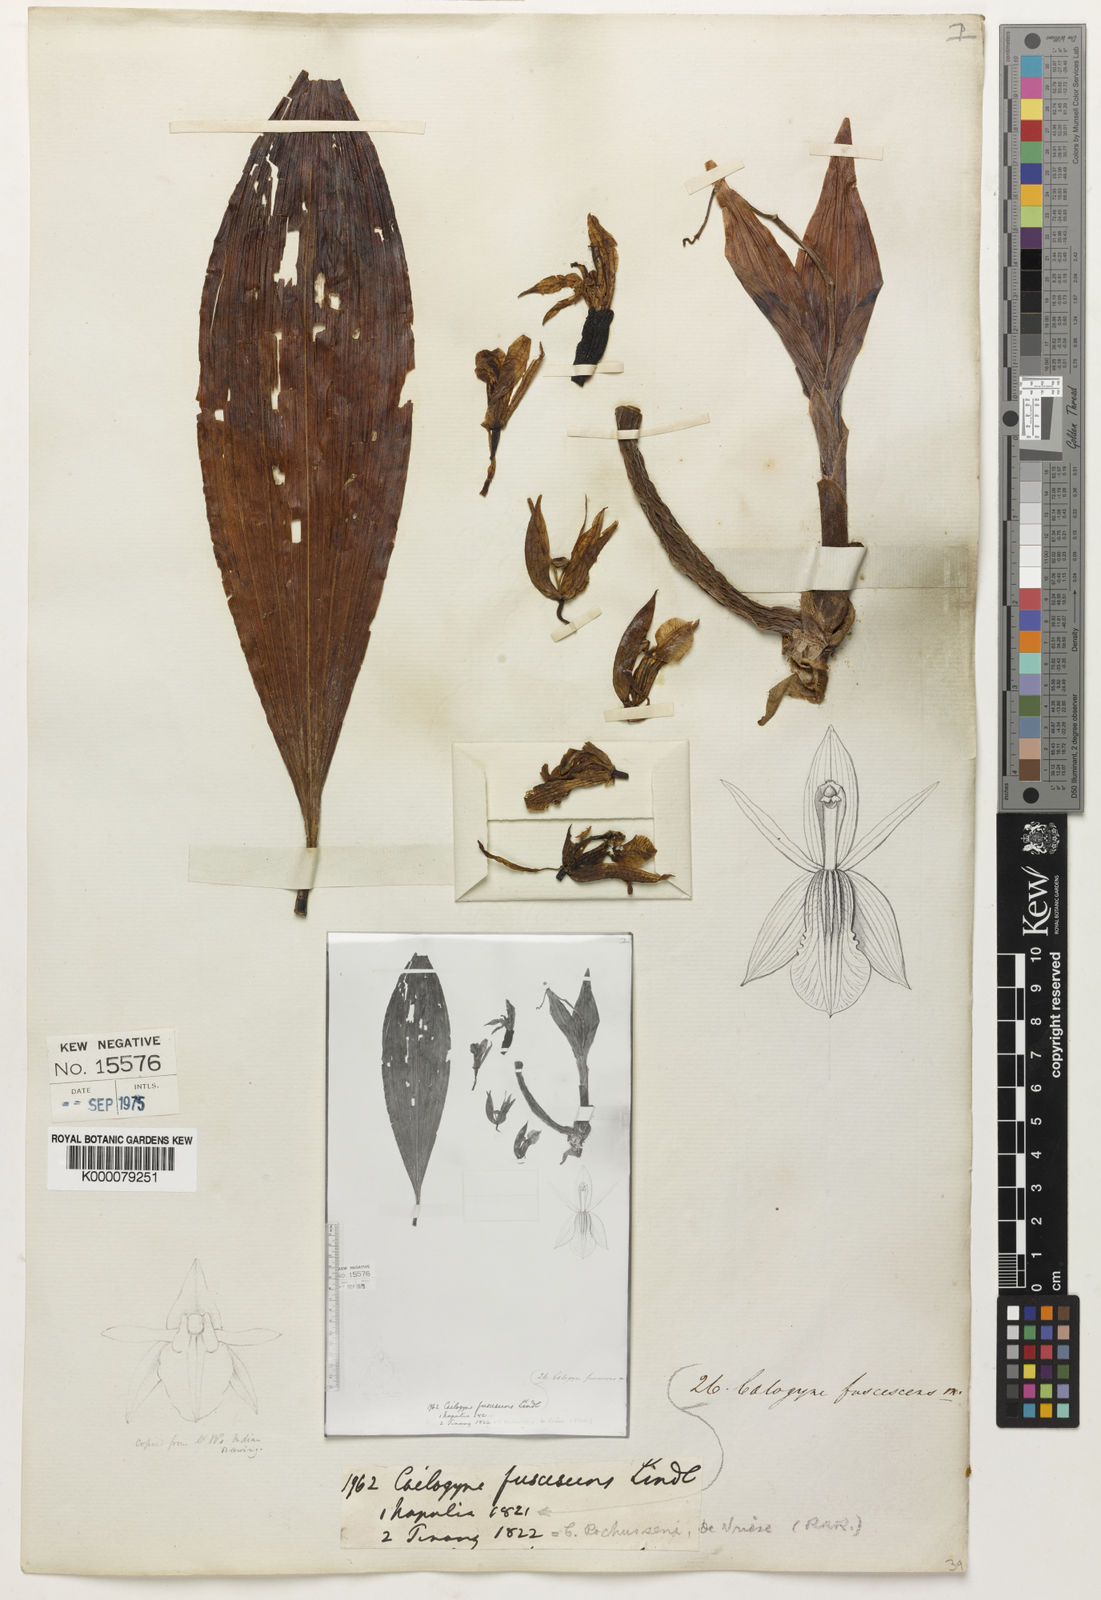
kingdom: Plantae
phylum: Tracheophyta
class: Liliopsida
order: Asparagales
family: Orchidaceae
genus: Coelogyne
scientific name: Coelogyne fuscescens
